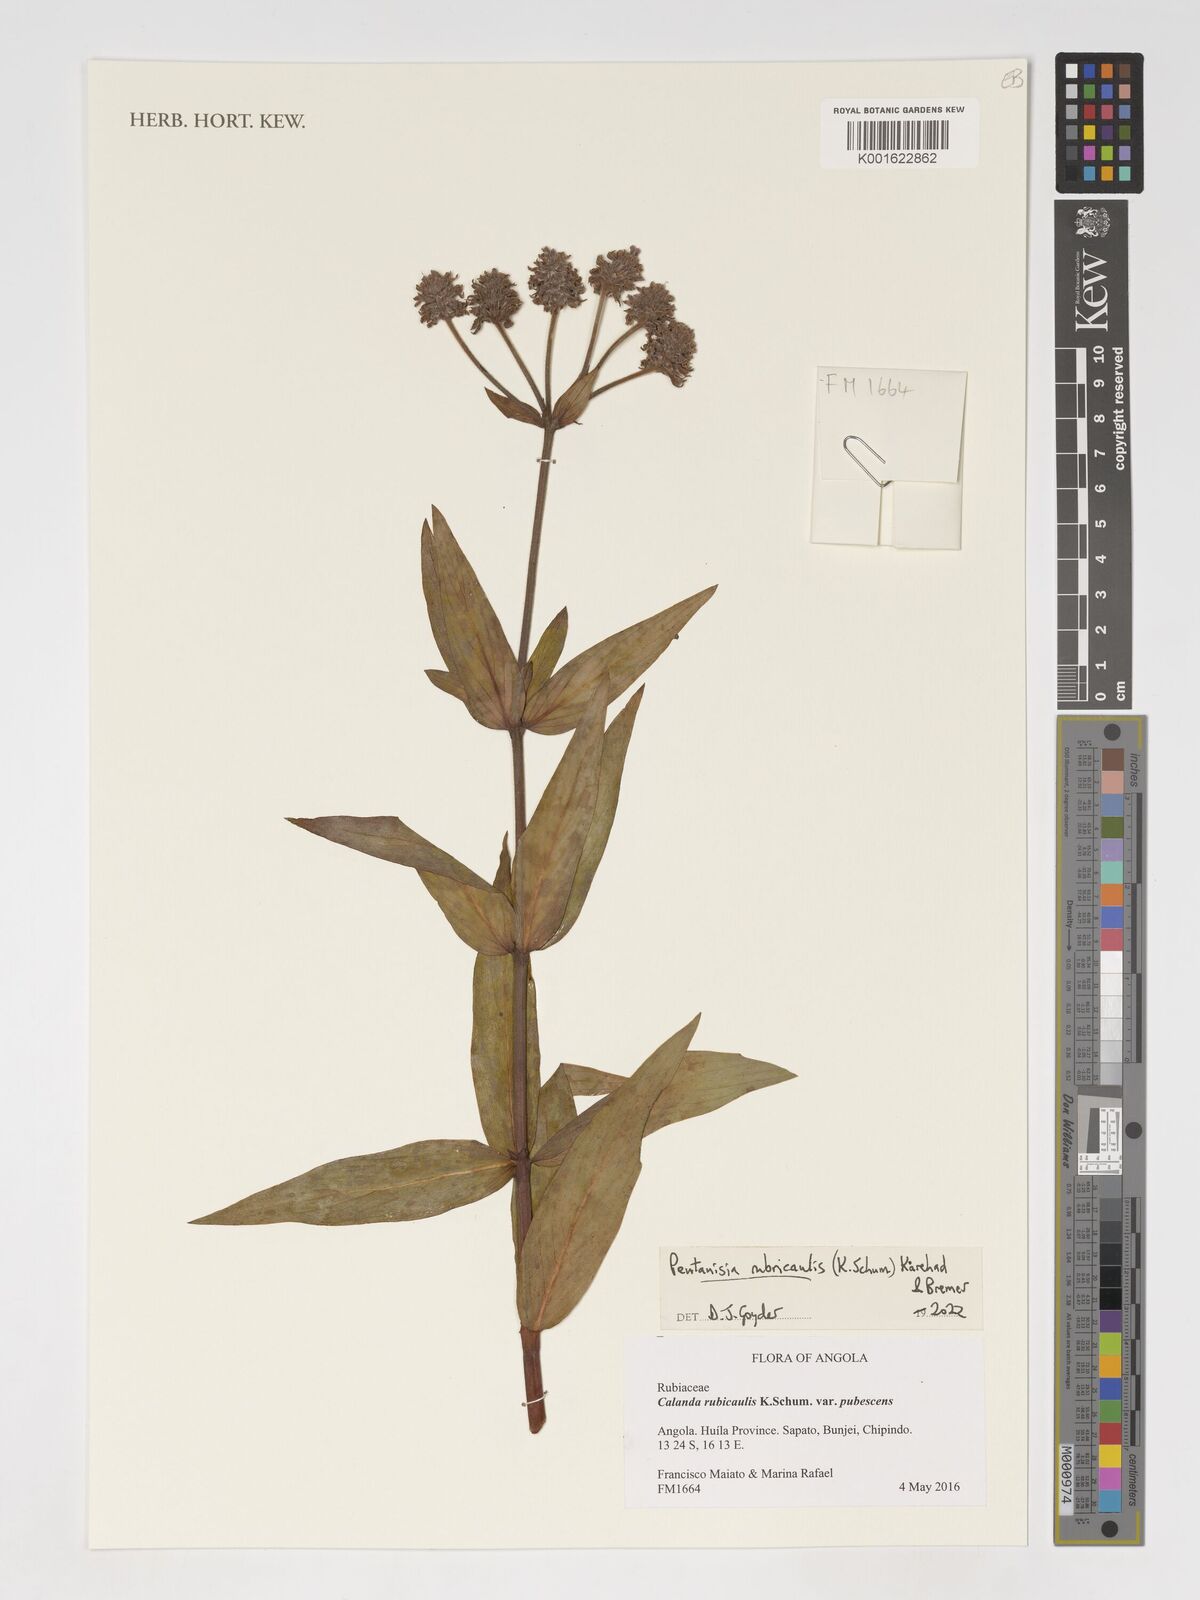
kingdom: Plantae
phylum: Tracheophyta
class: Magnoliopsida
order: Gentianales
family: Rubiaceae
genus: Pentanisia
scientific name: Pentanisia rubricaulis
